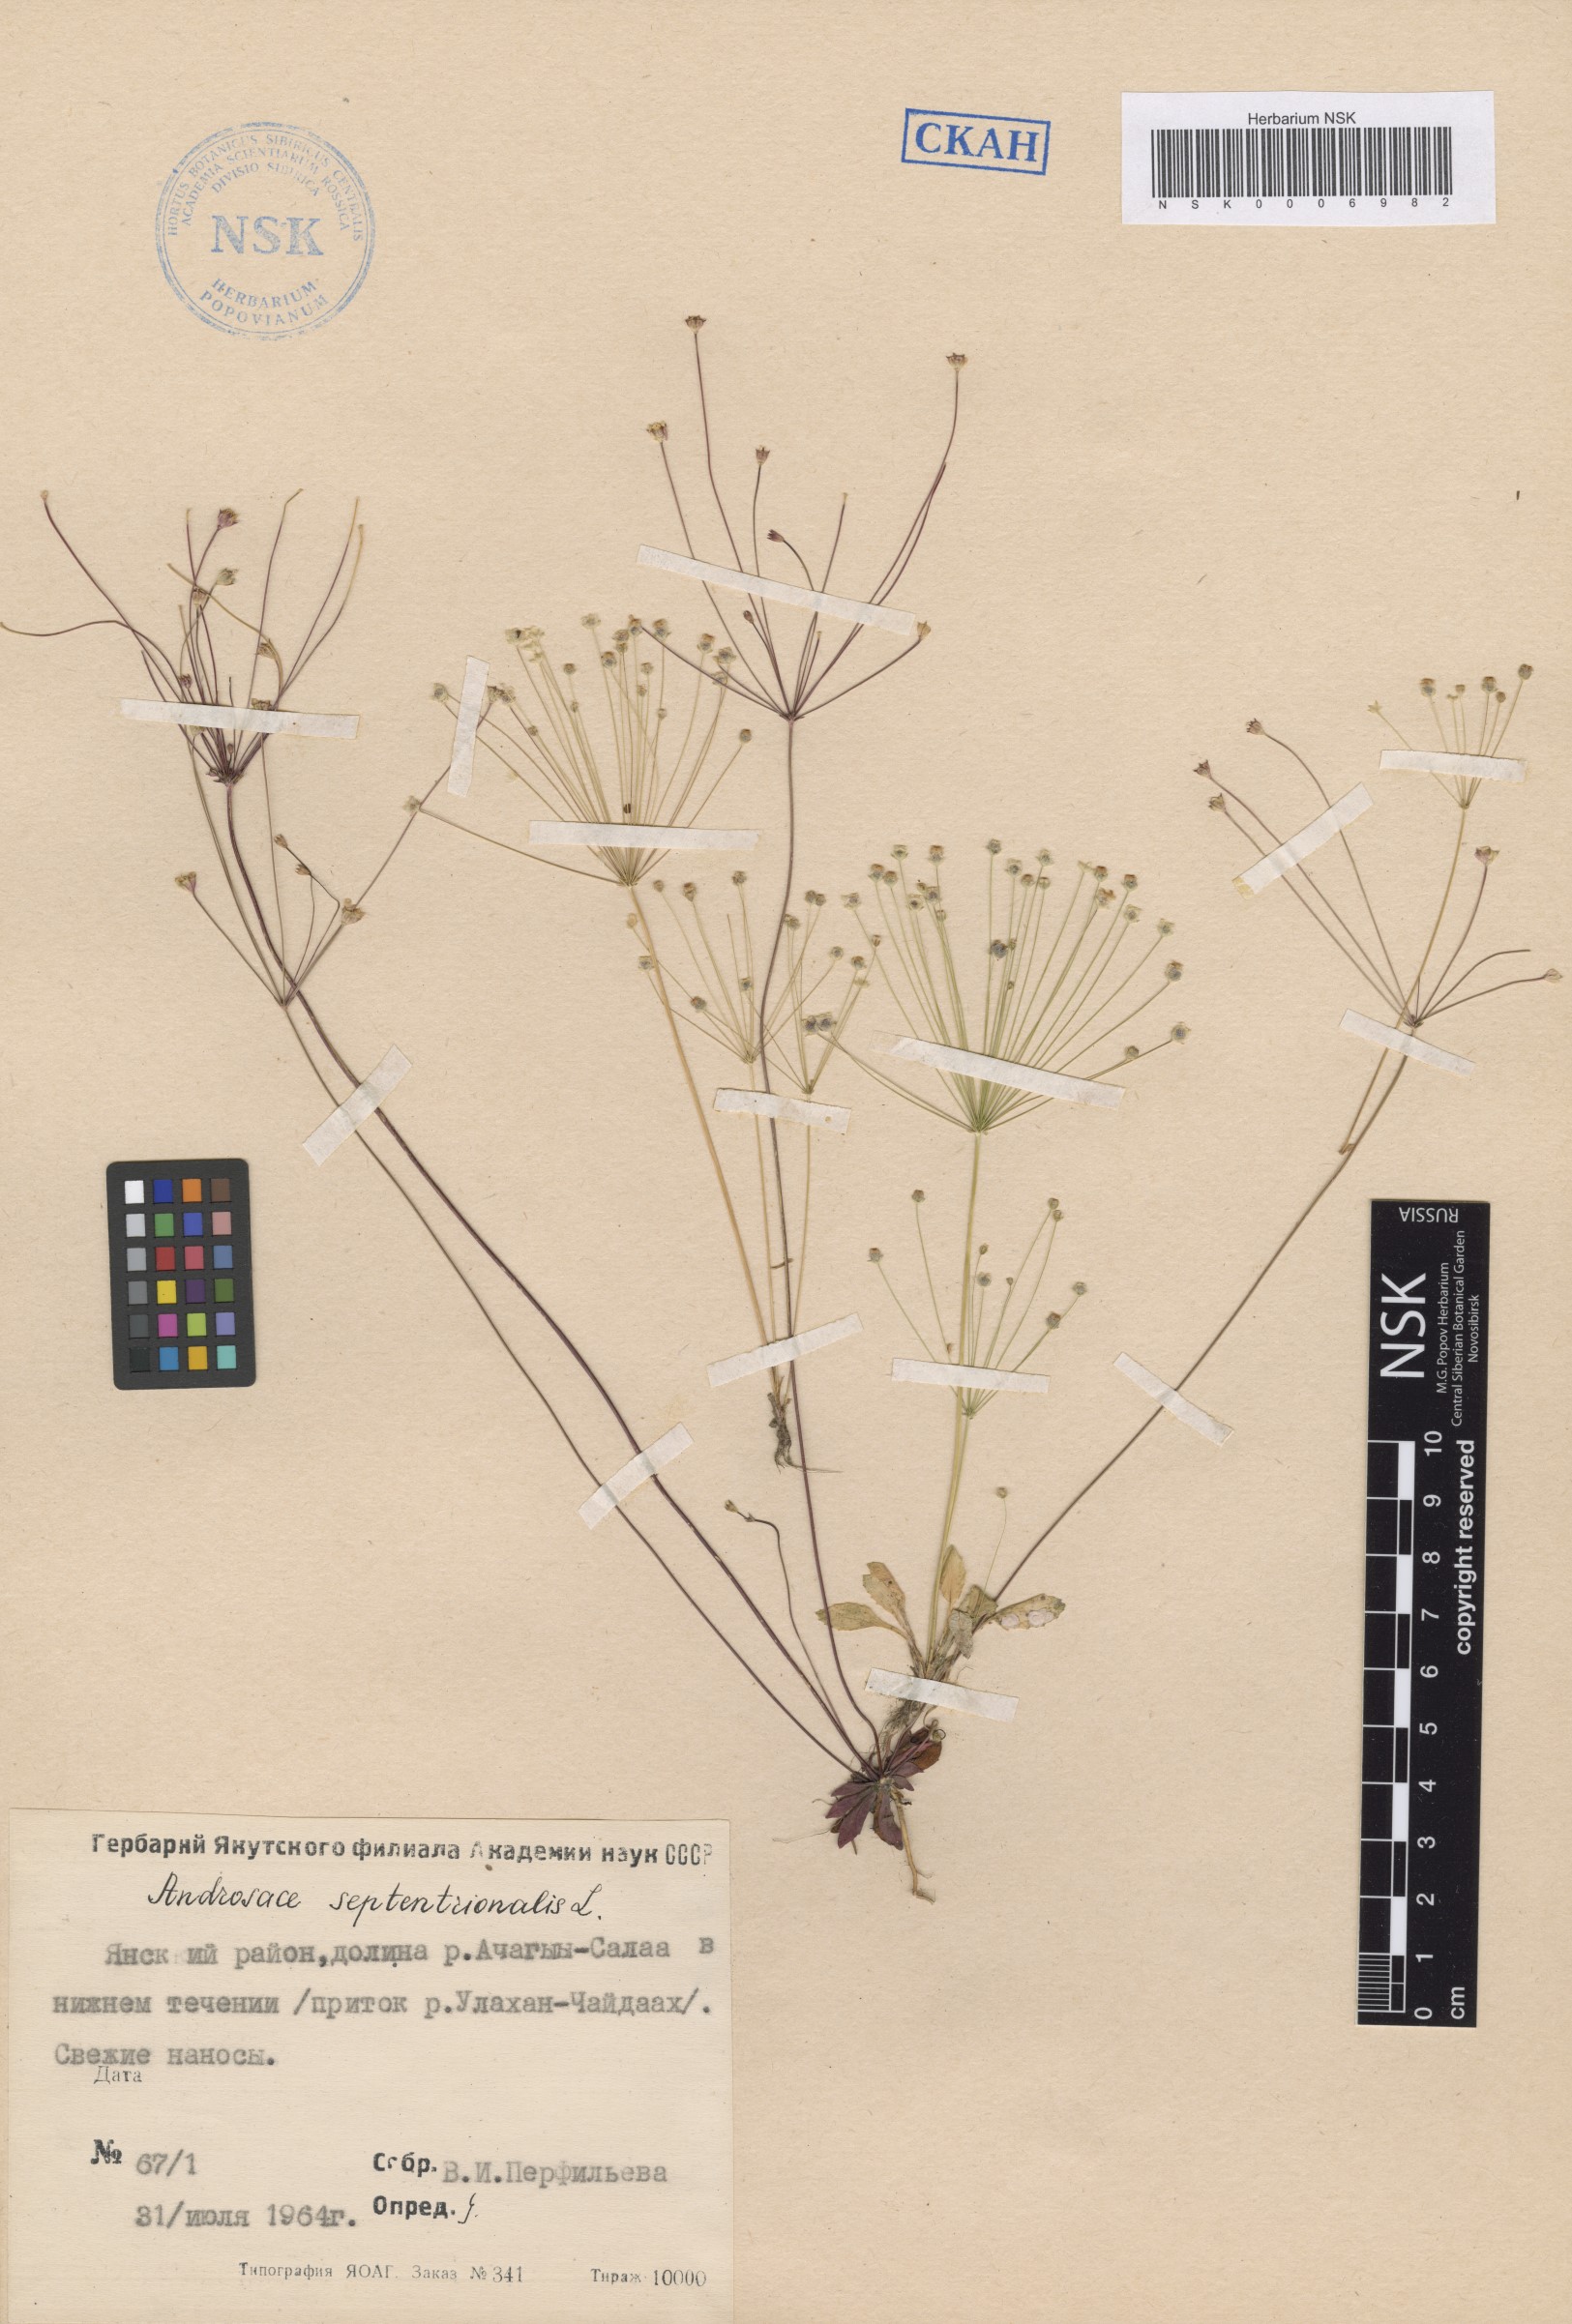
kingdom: Plantae
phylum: Tracheophyta
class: Magnoliopsida
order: Ericales
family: Primulaceae
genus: Androsace
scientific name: Androsace septentrionalis
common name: Hairy northern fairy-candelabra
